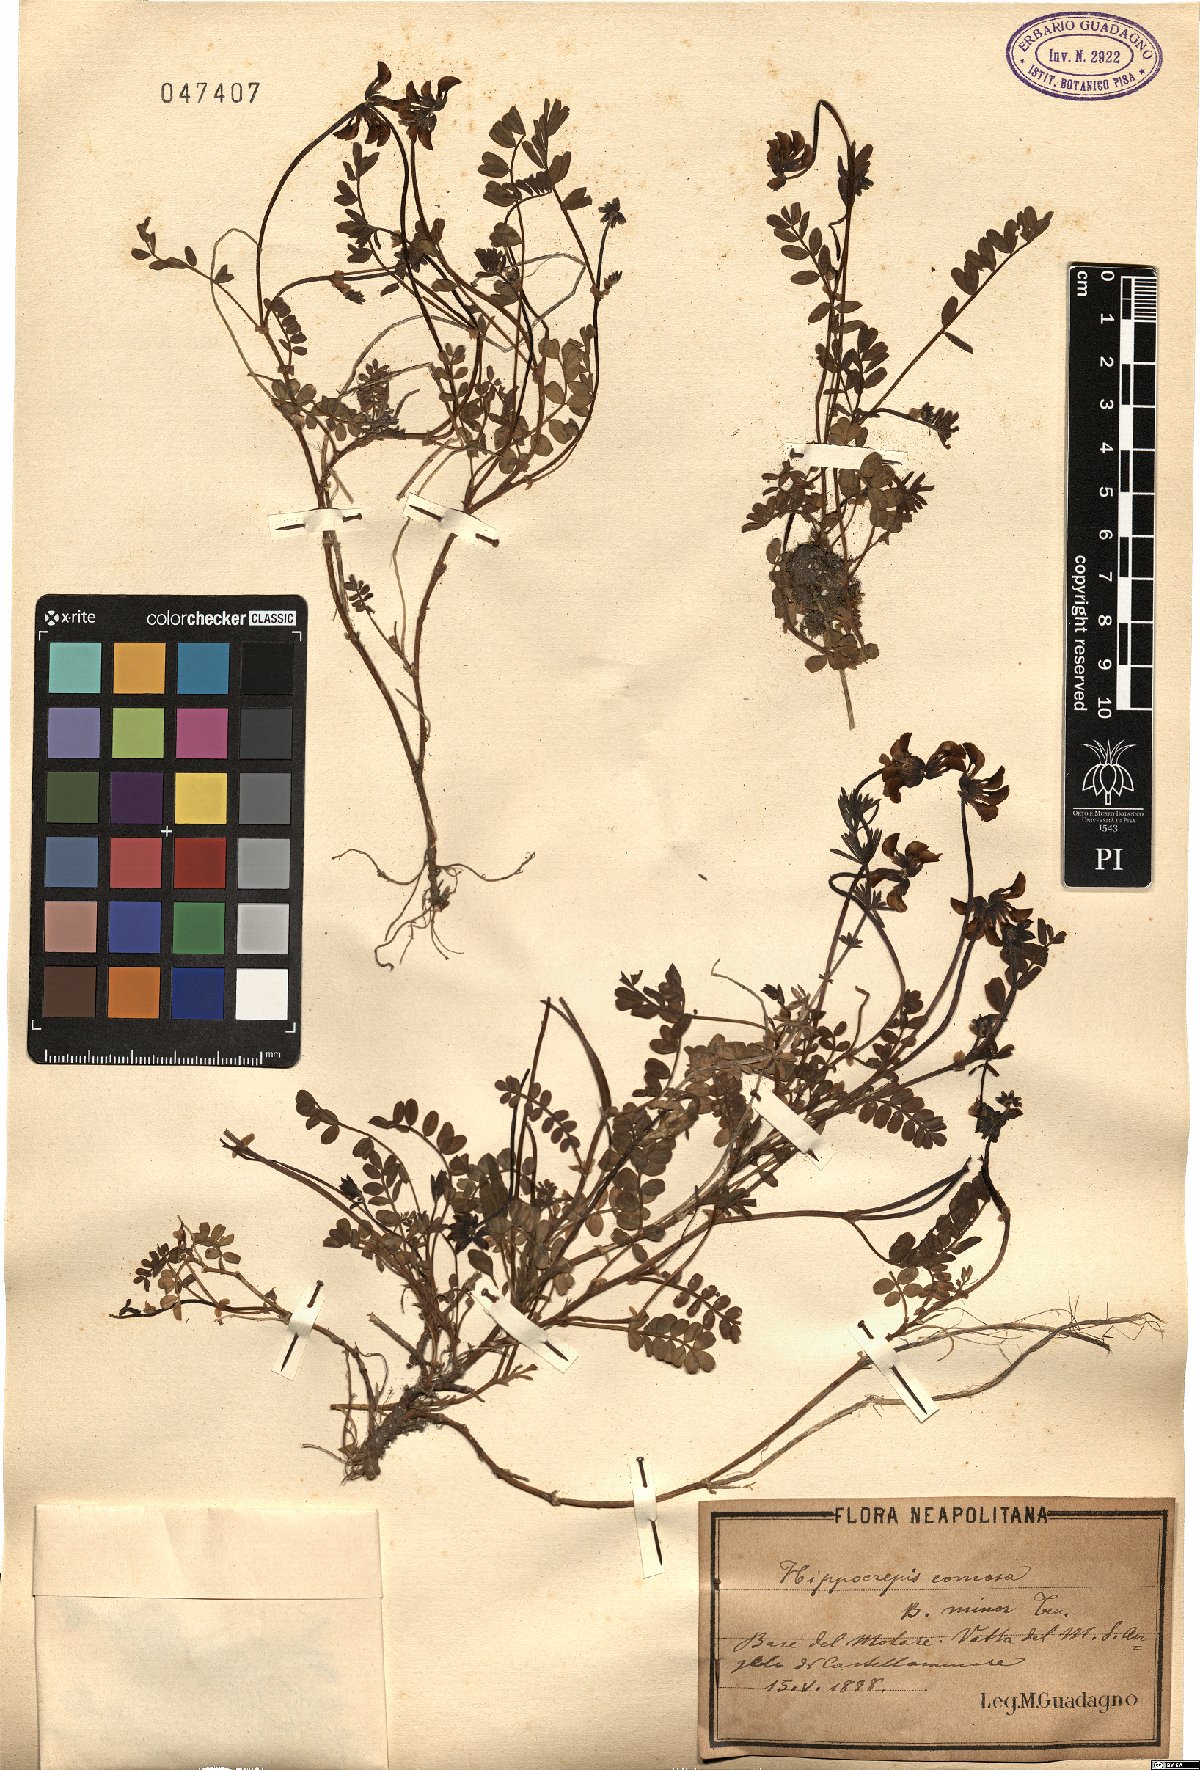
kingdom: Plantae
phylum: Tracheophyta
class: Magnoliopsida
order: Fabales
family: Fabaceae
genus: Hippocrepis
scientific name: Hippocrepis comosa
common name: Horseshoe vetch
